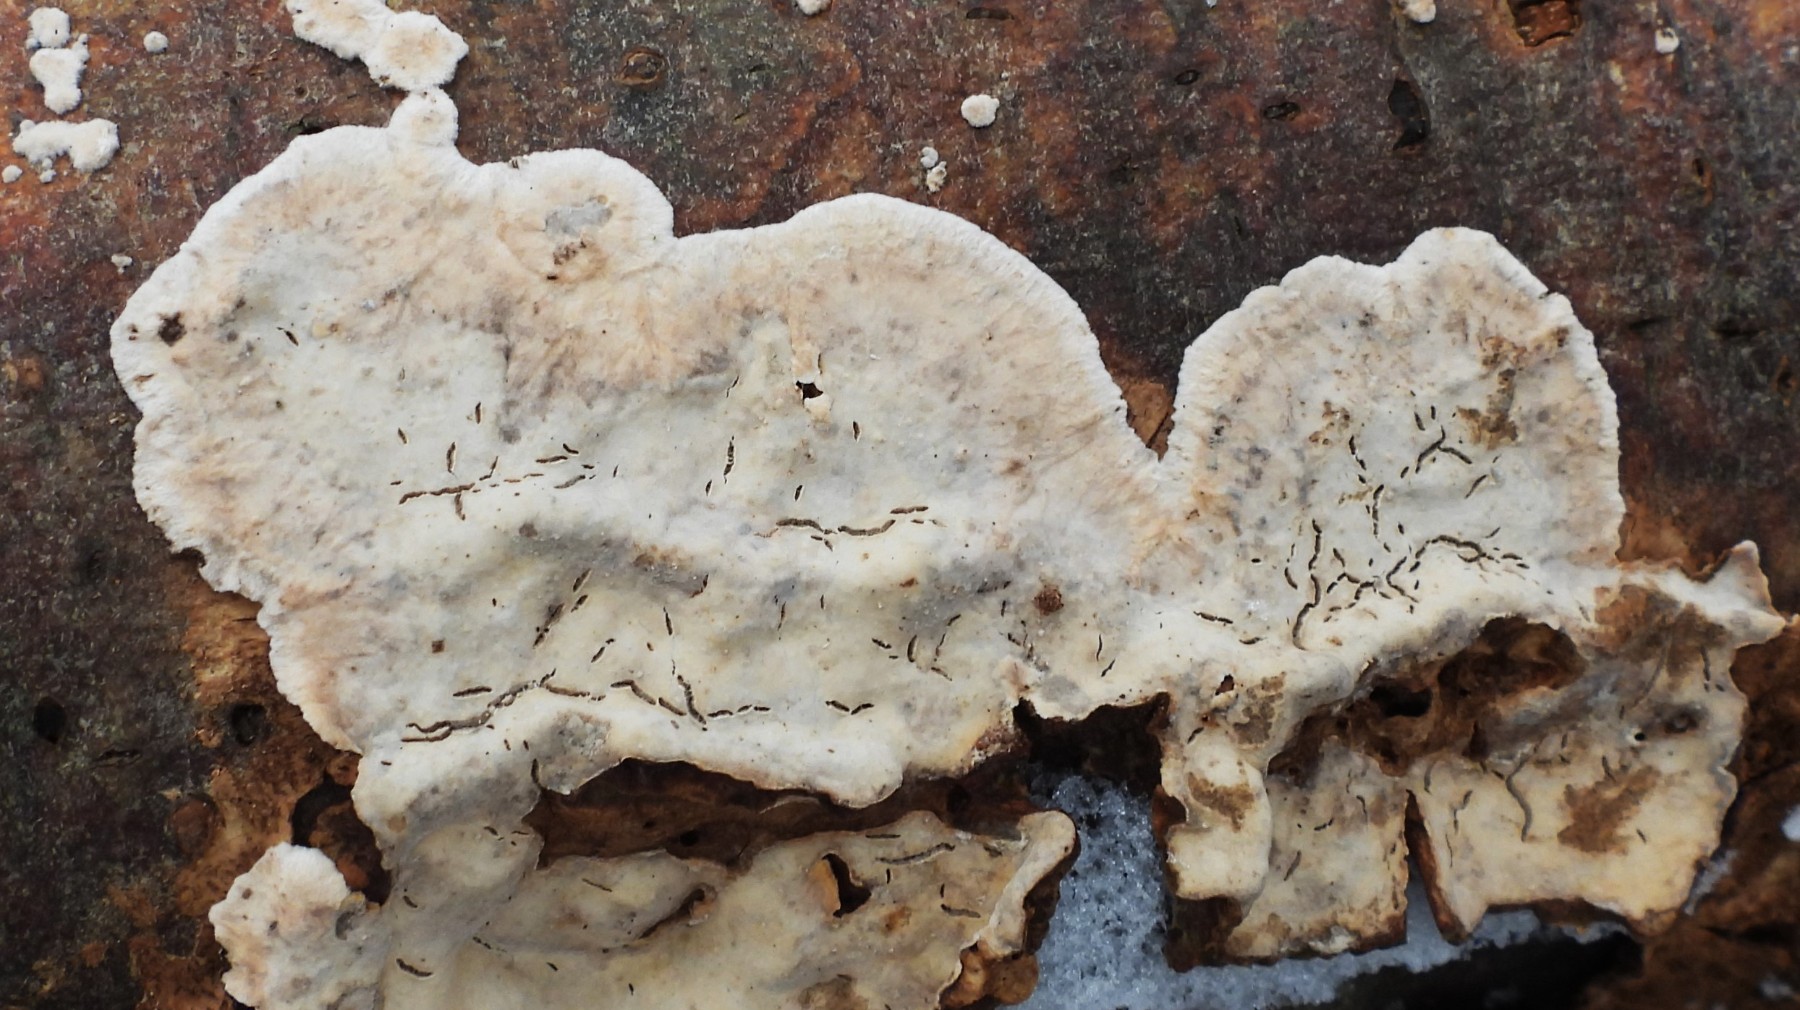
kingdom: Fungi
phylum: Basidiomycota
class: Agaricomycetes
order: Agaricales
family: Physalacriaceae
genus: Cylindrobasidium
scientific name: Cylindrobasidium evolvens
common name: sprækkehinde
